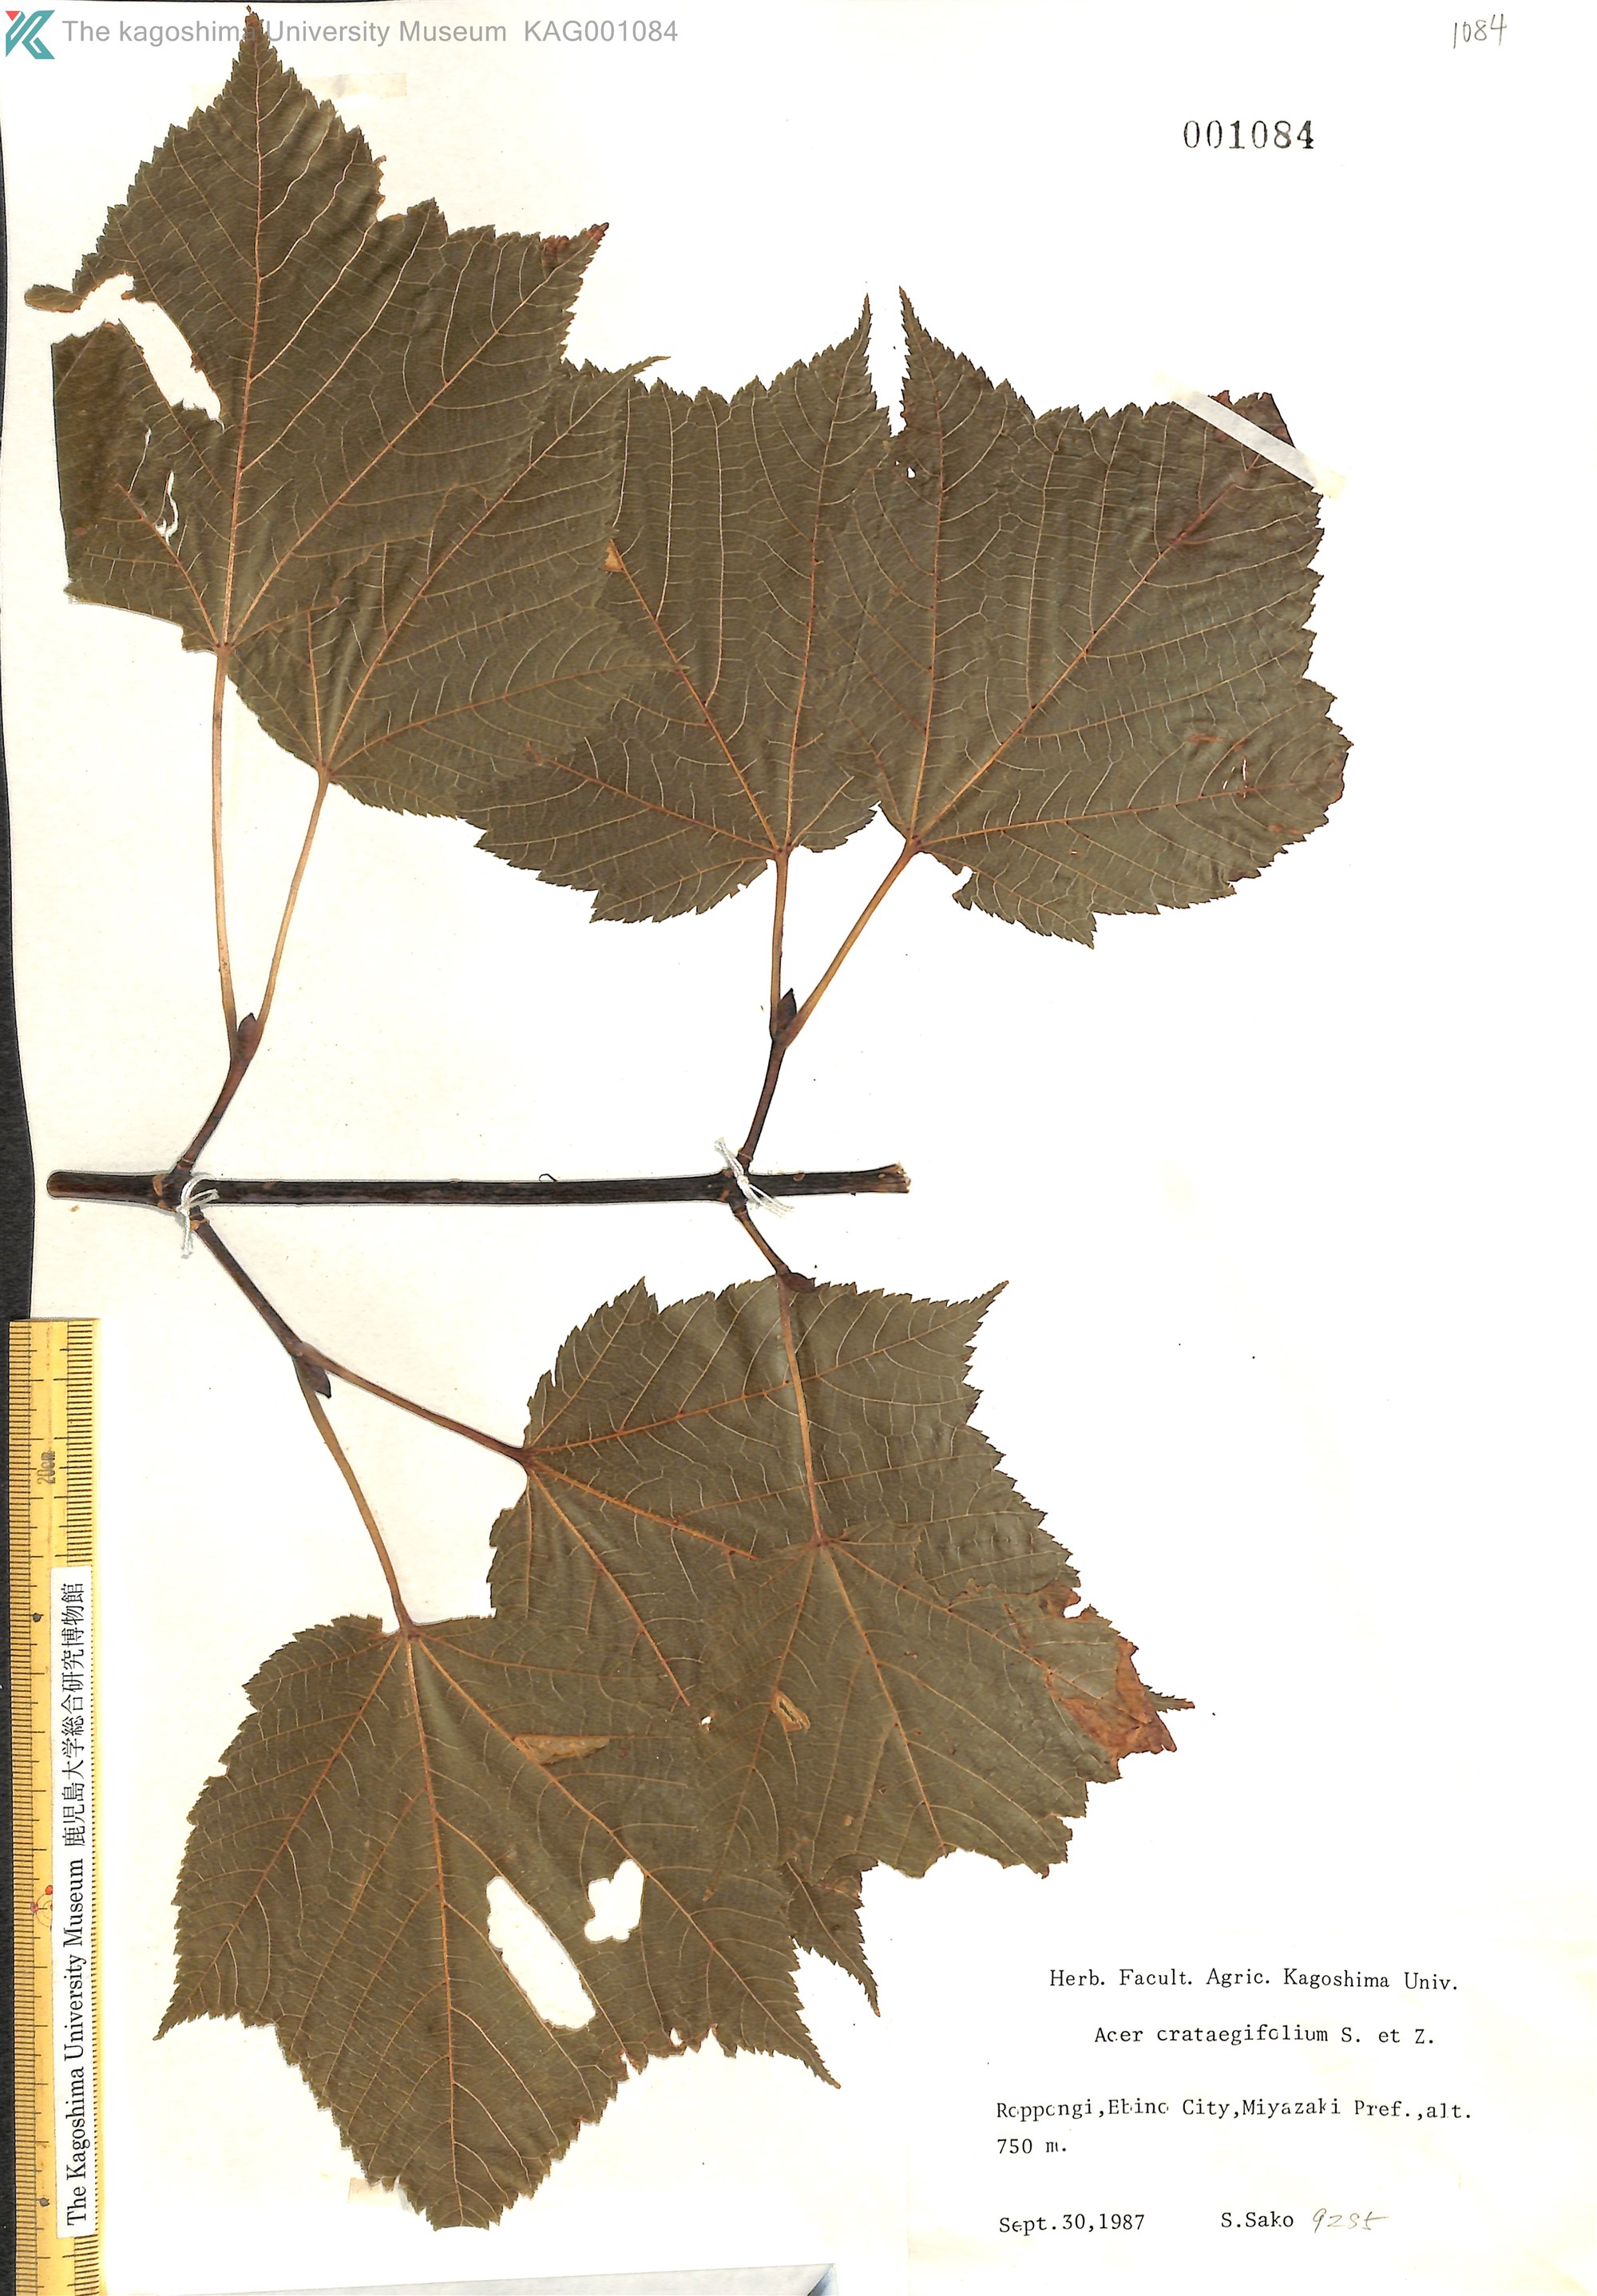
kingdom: Plantae
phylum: Tracheophyta
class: Magnoliopsida
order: Sapindales
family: Sapindaceae
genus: Acer
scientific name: Acer crataegifolium
